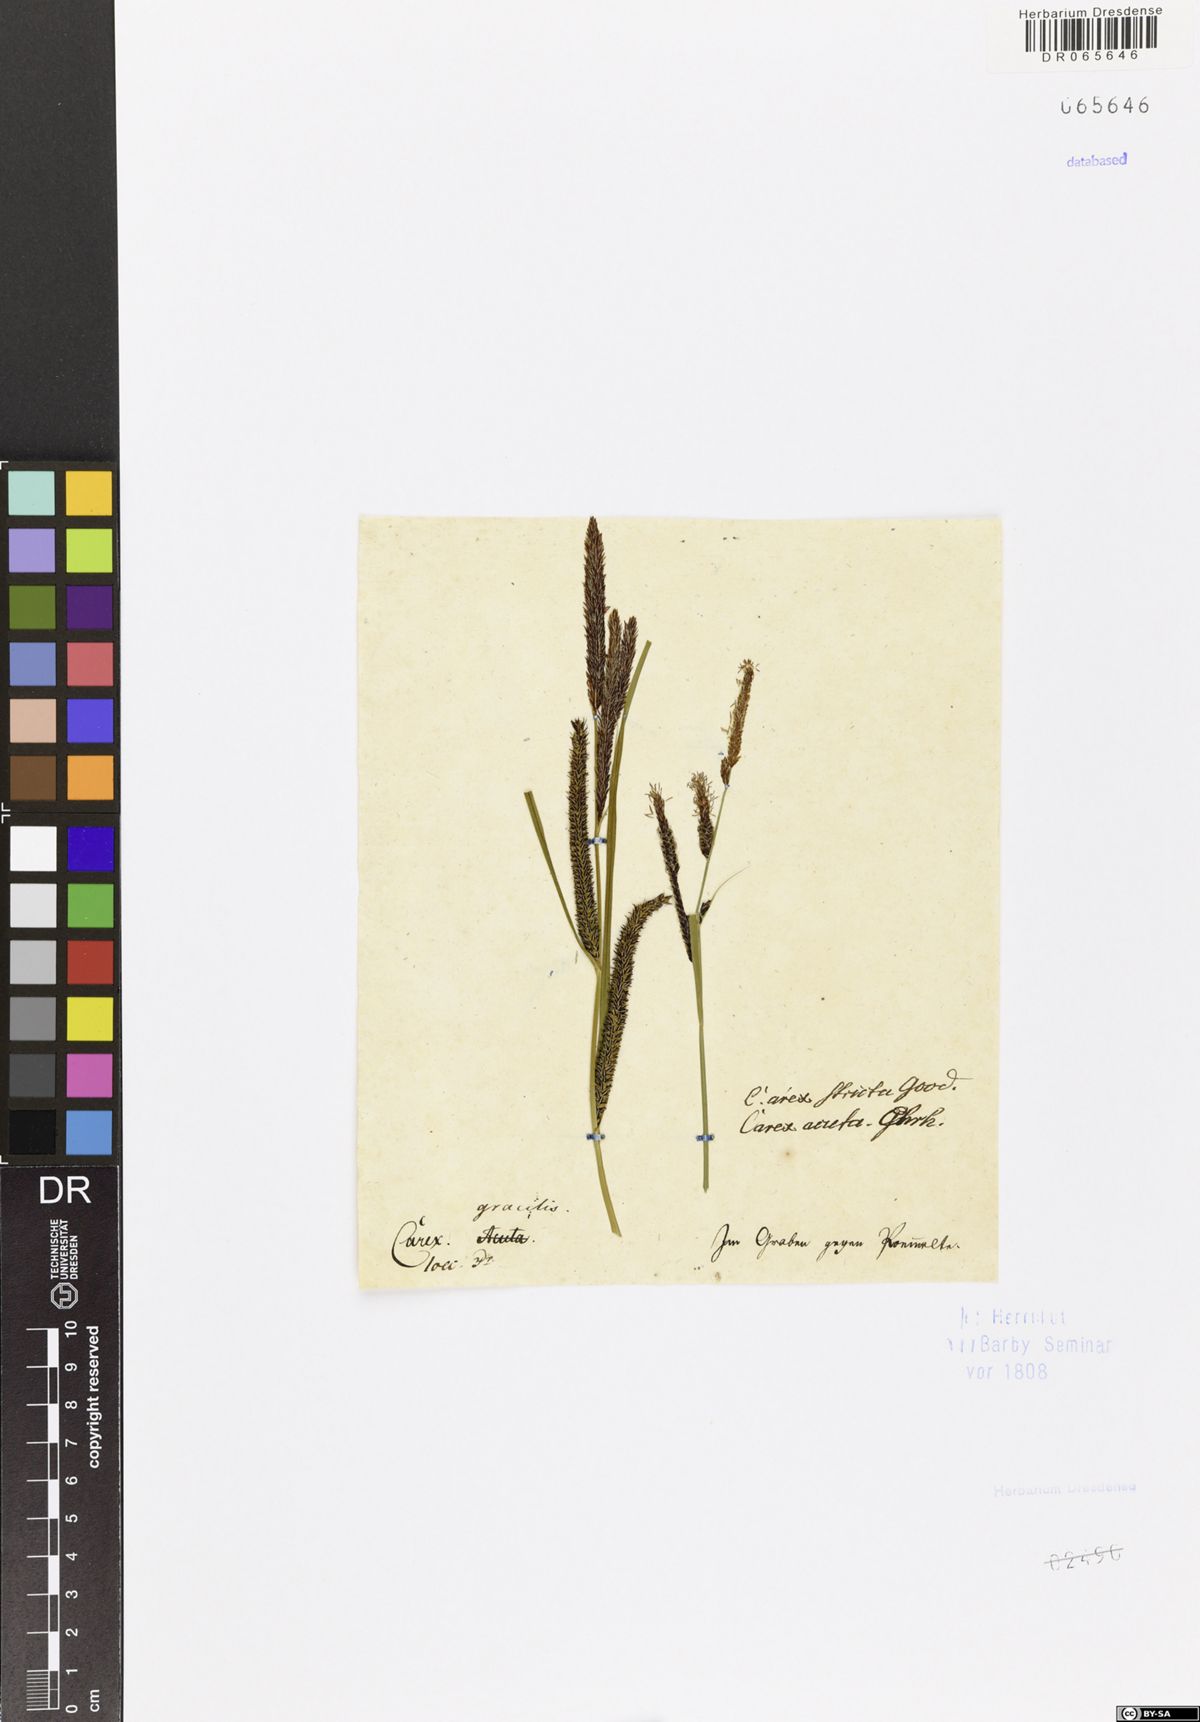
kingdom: Plantae
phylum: Tracheophyta
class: Liliopsida
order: Poales
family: Cyperaceae
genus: Carex
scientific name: Carex acuta
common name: Slender tufted-sedge
